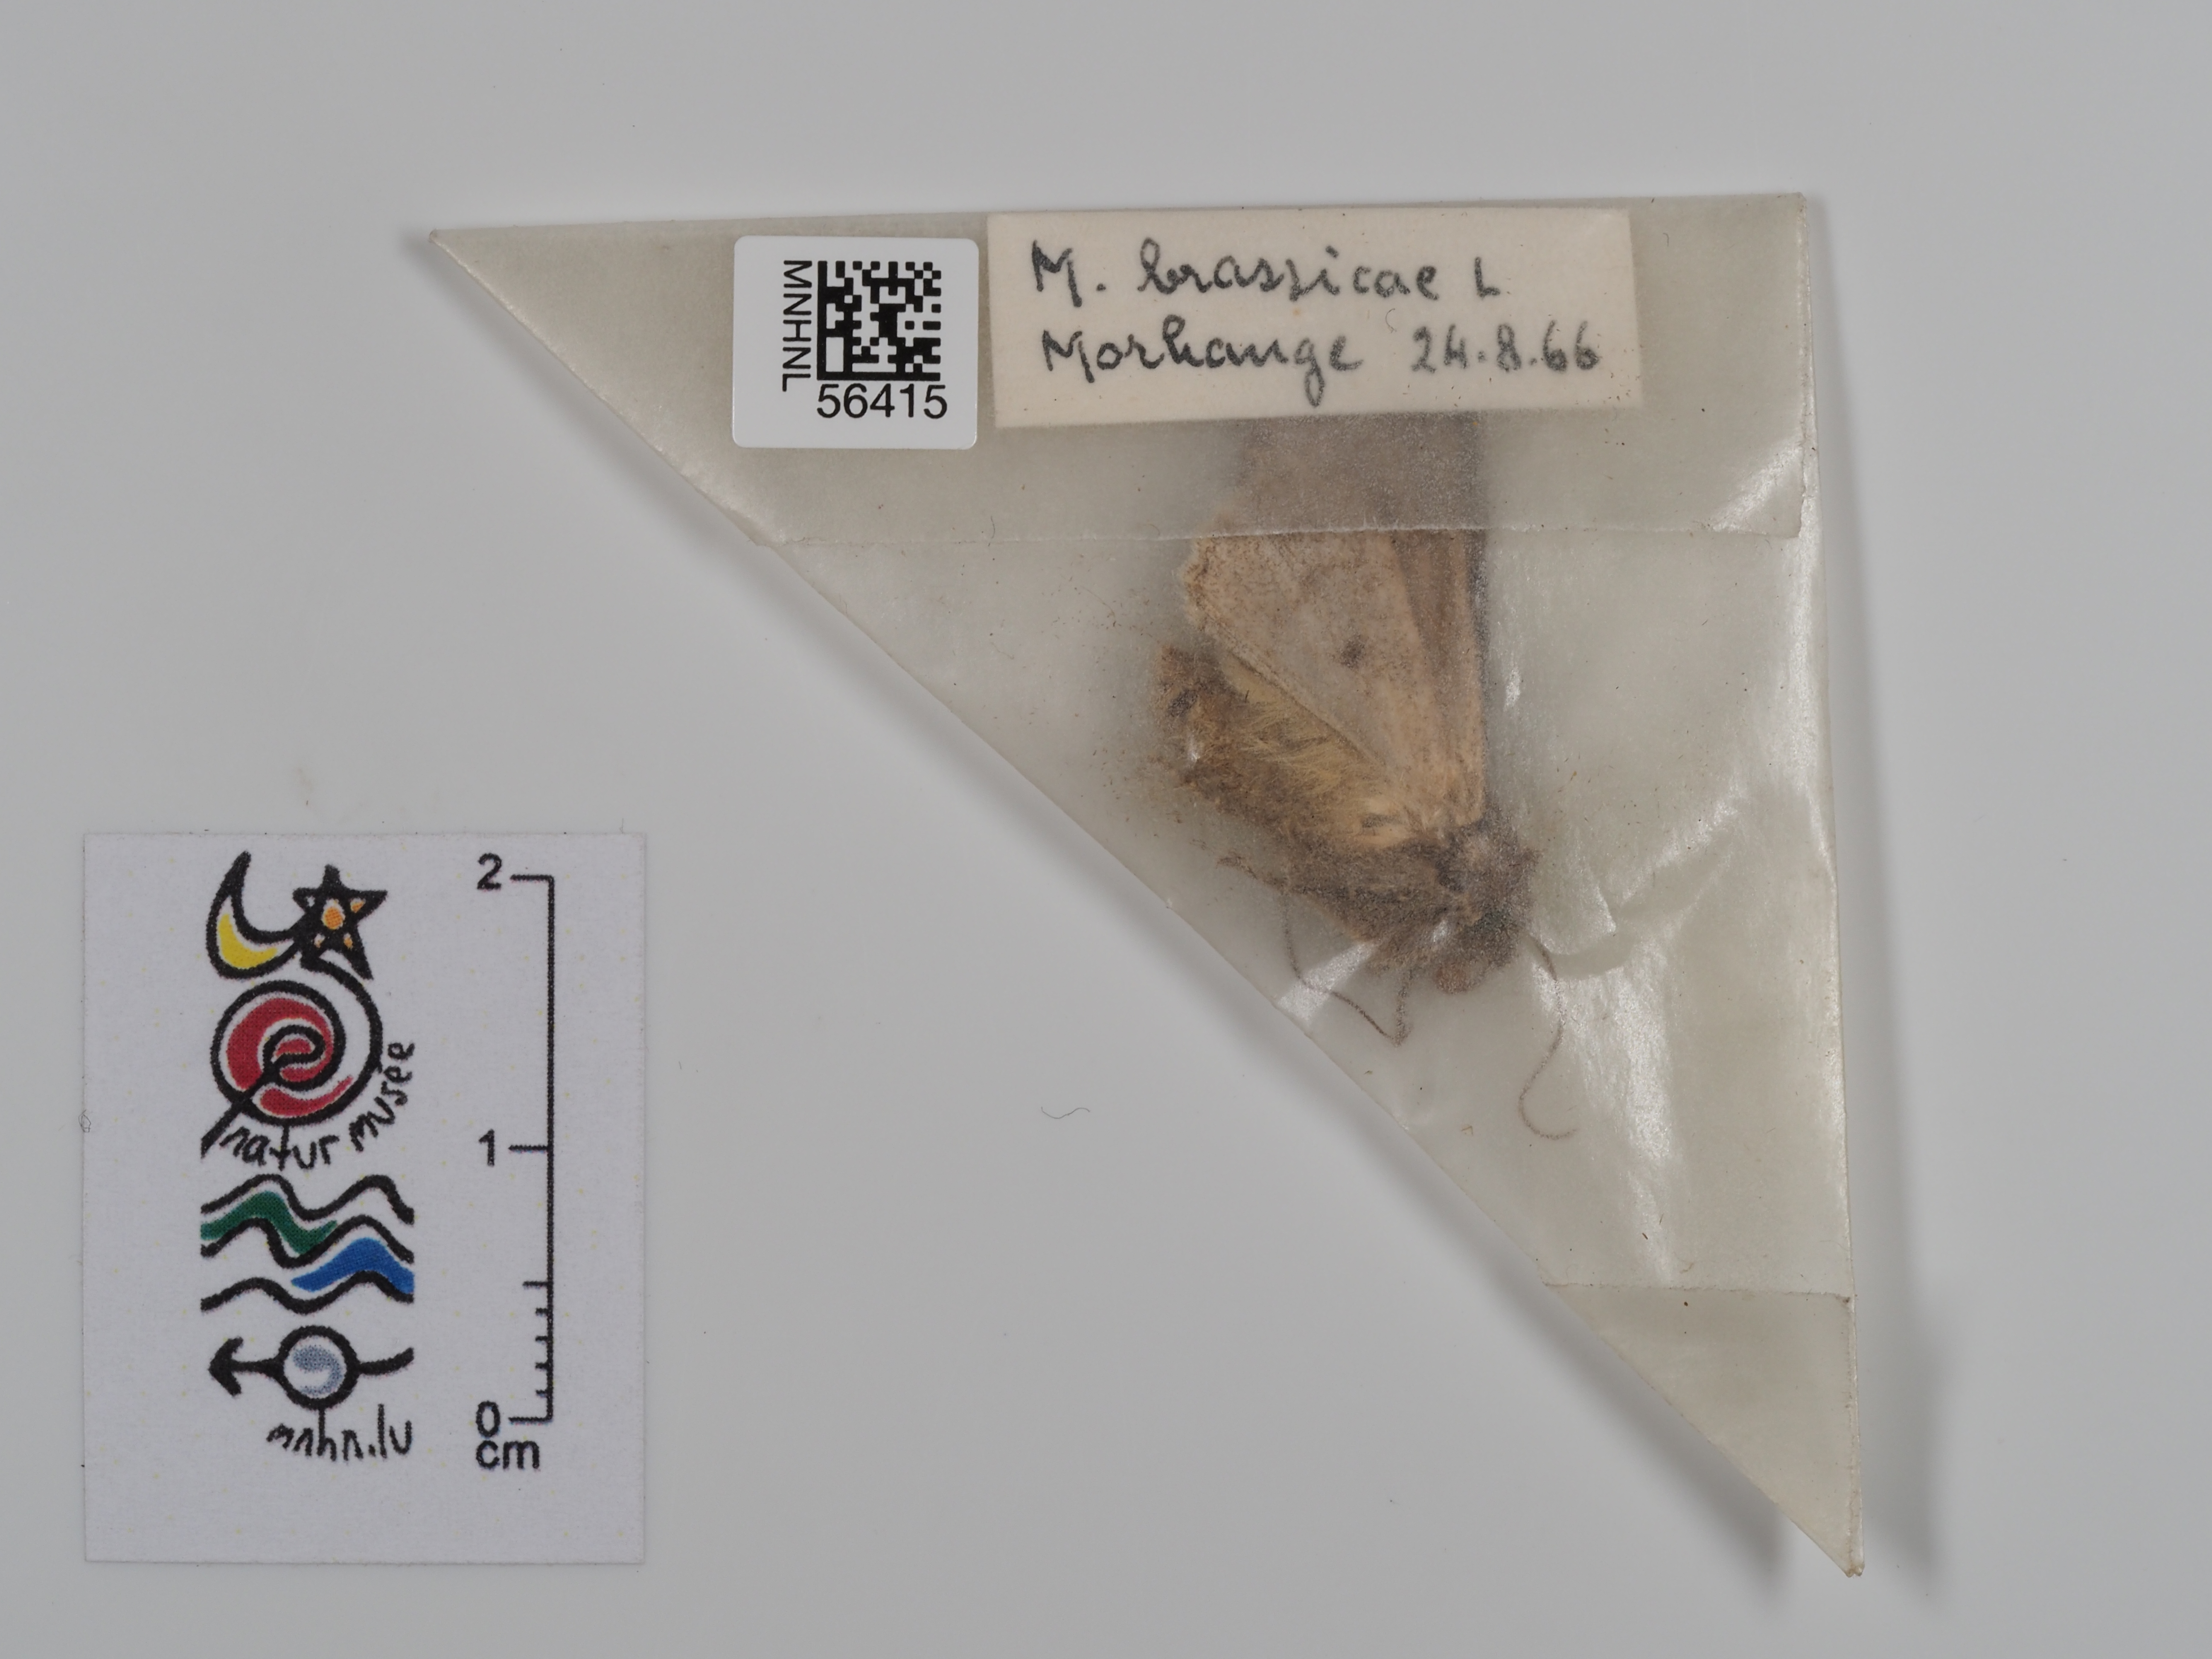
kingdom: Animalia
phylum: Arthropoda
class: Insecta
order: Lepidoptera
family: Noctuidae
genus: Mamestra
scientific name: Mamestra brassicae
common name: Cabbage moth
